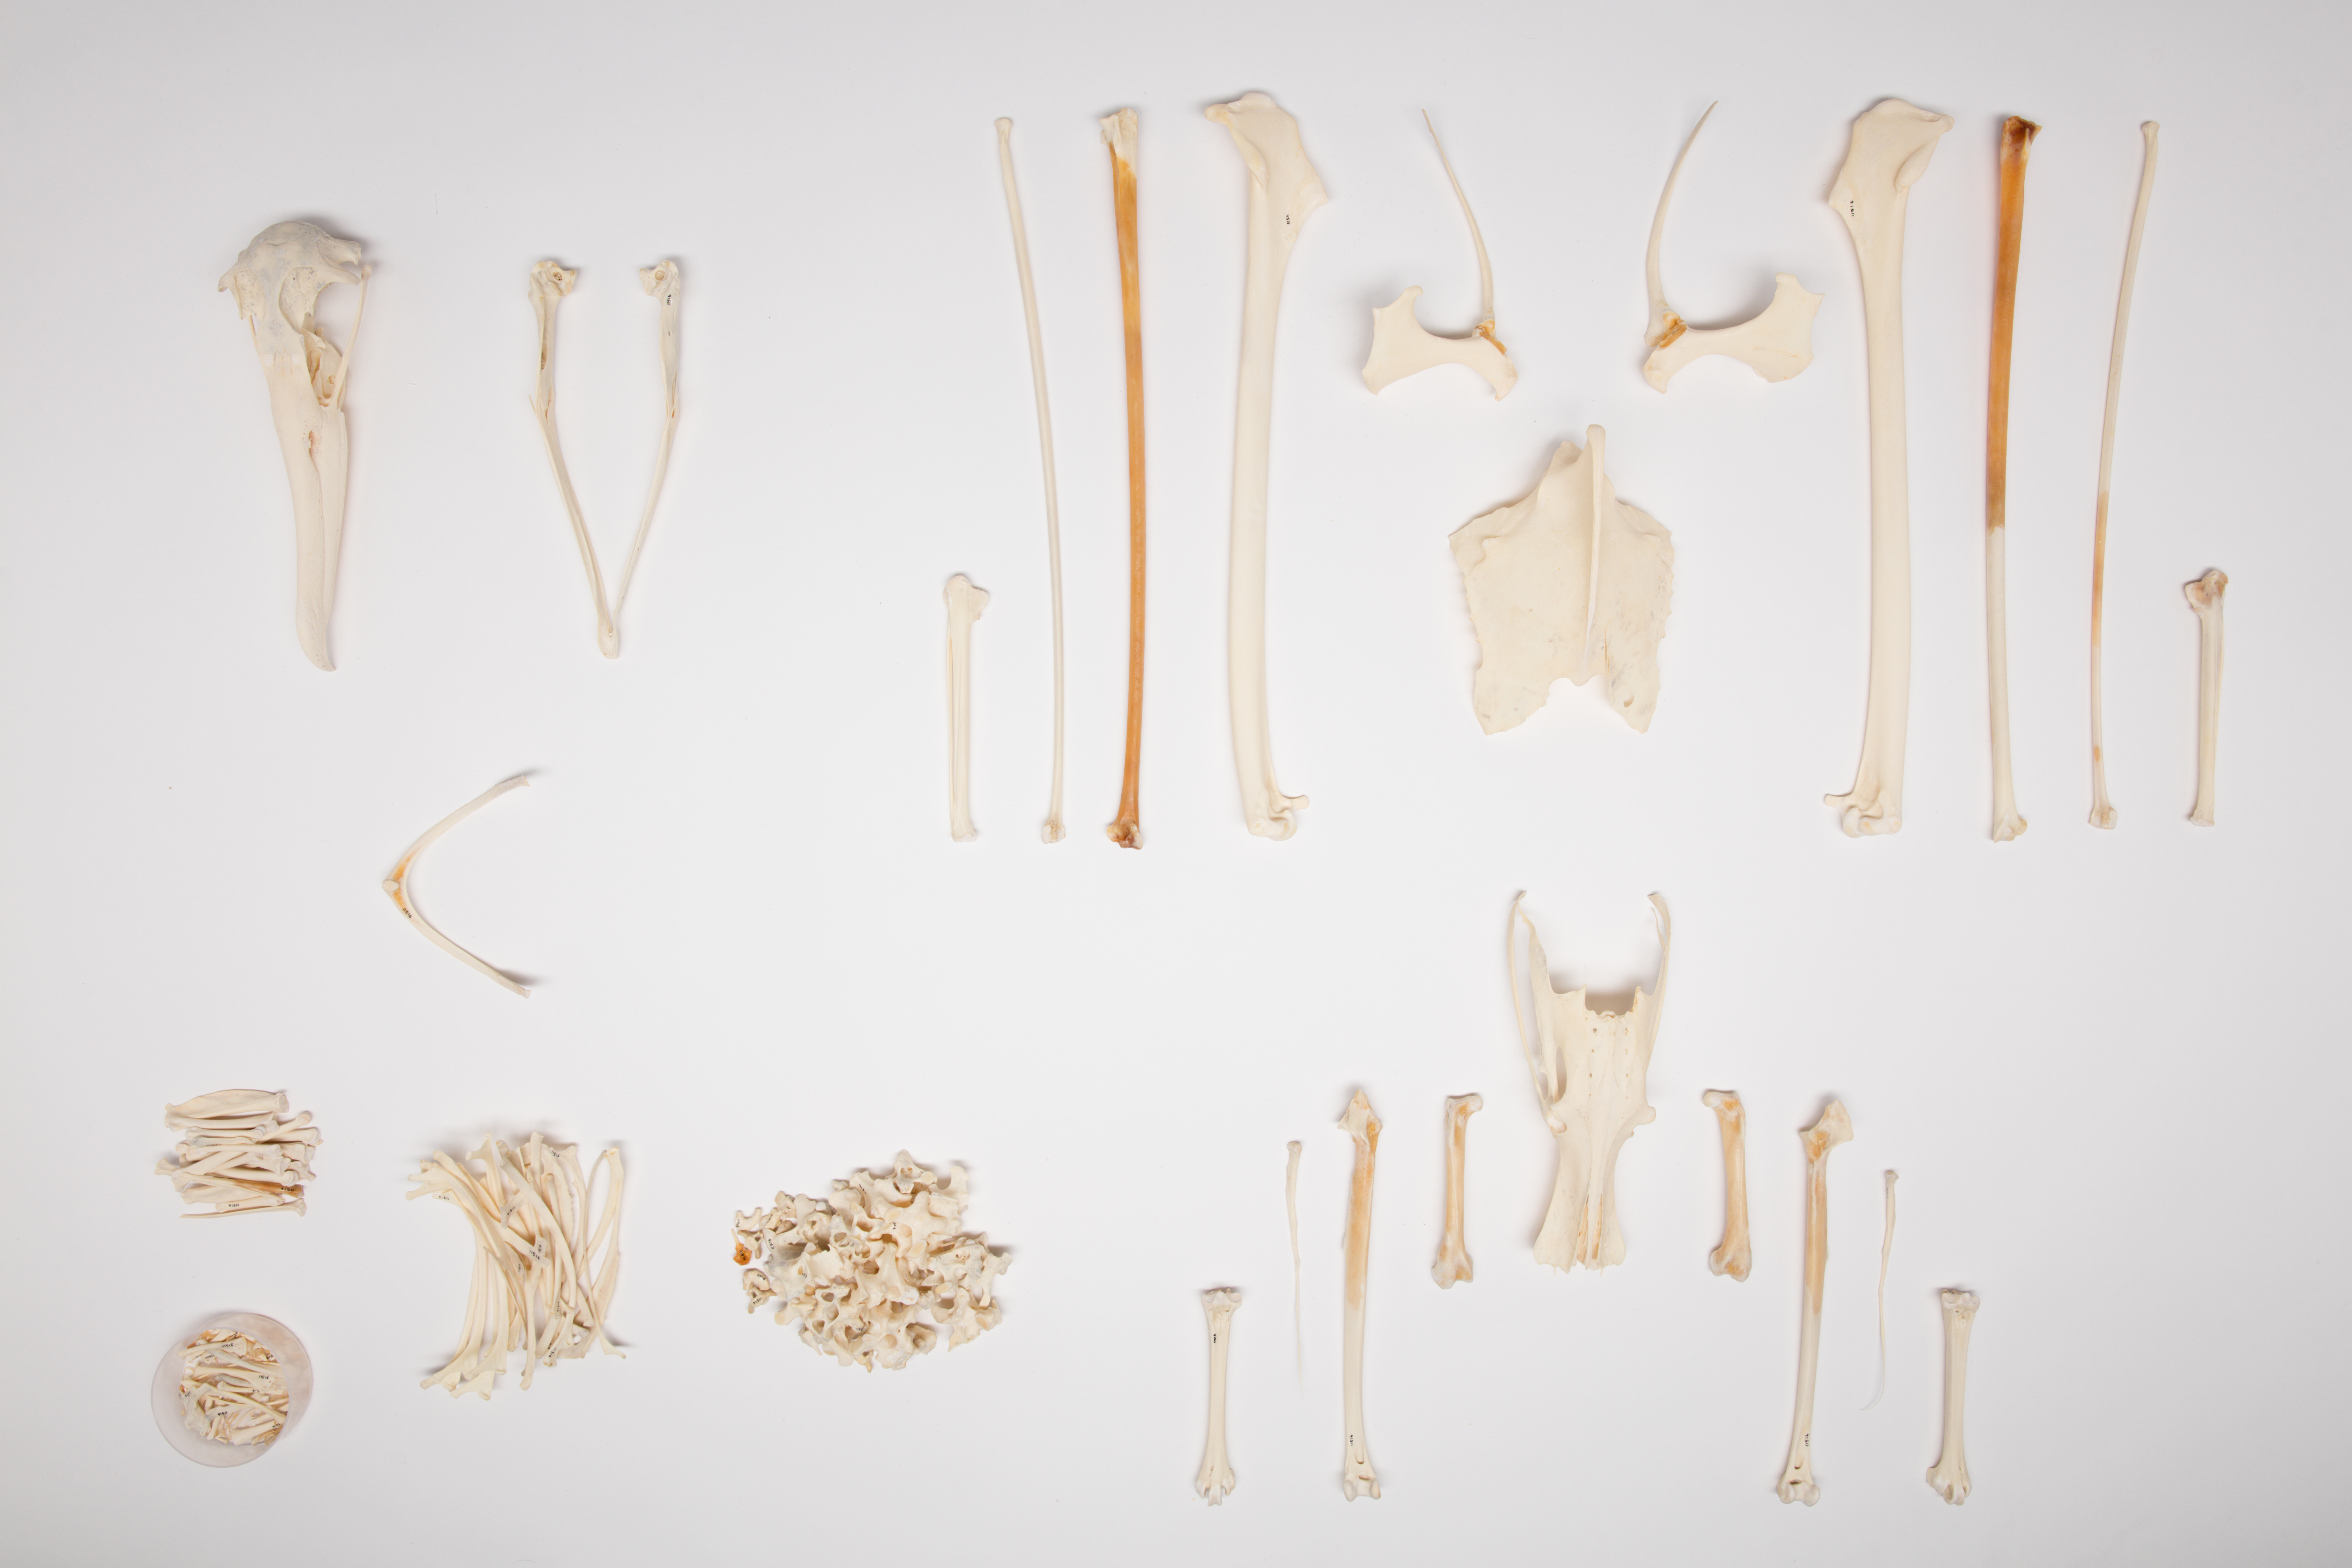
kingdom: Animalia
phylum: Chordata
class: Aves
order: Procellariiformes
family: Diomedeidae
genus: Diomedea
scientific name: Diomedea epomophora
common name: Southern royal albatross
